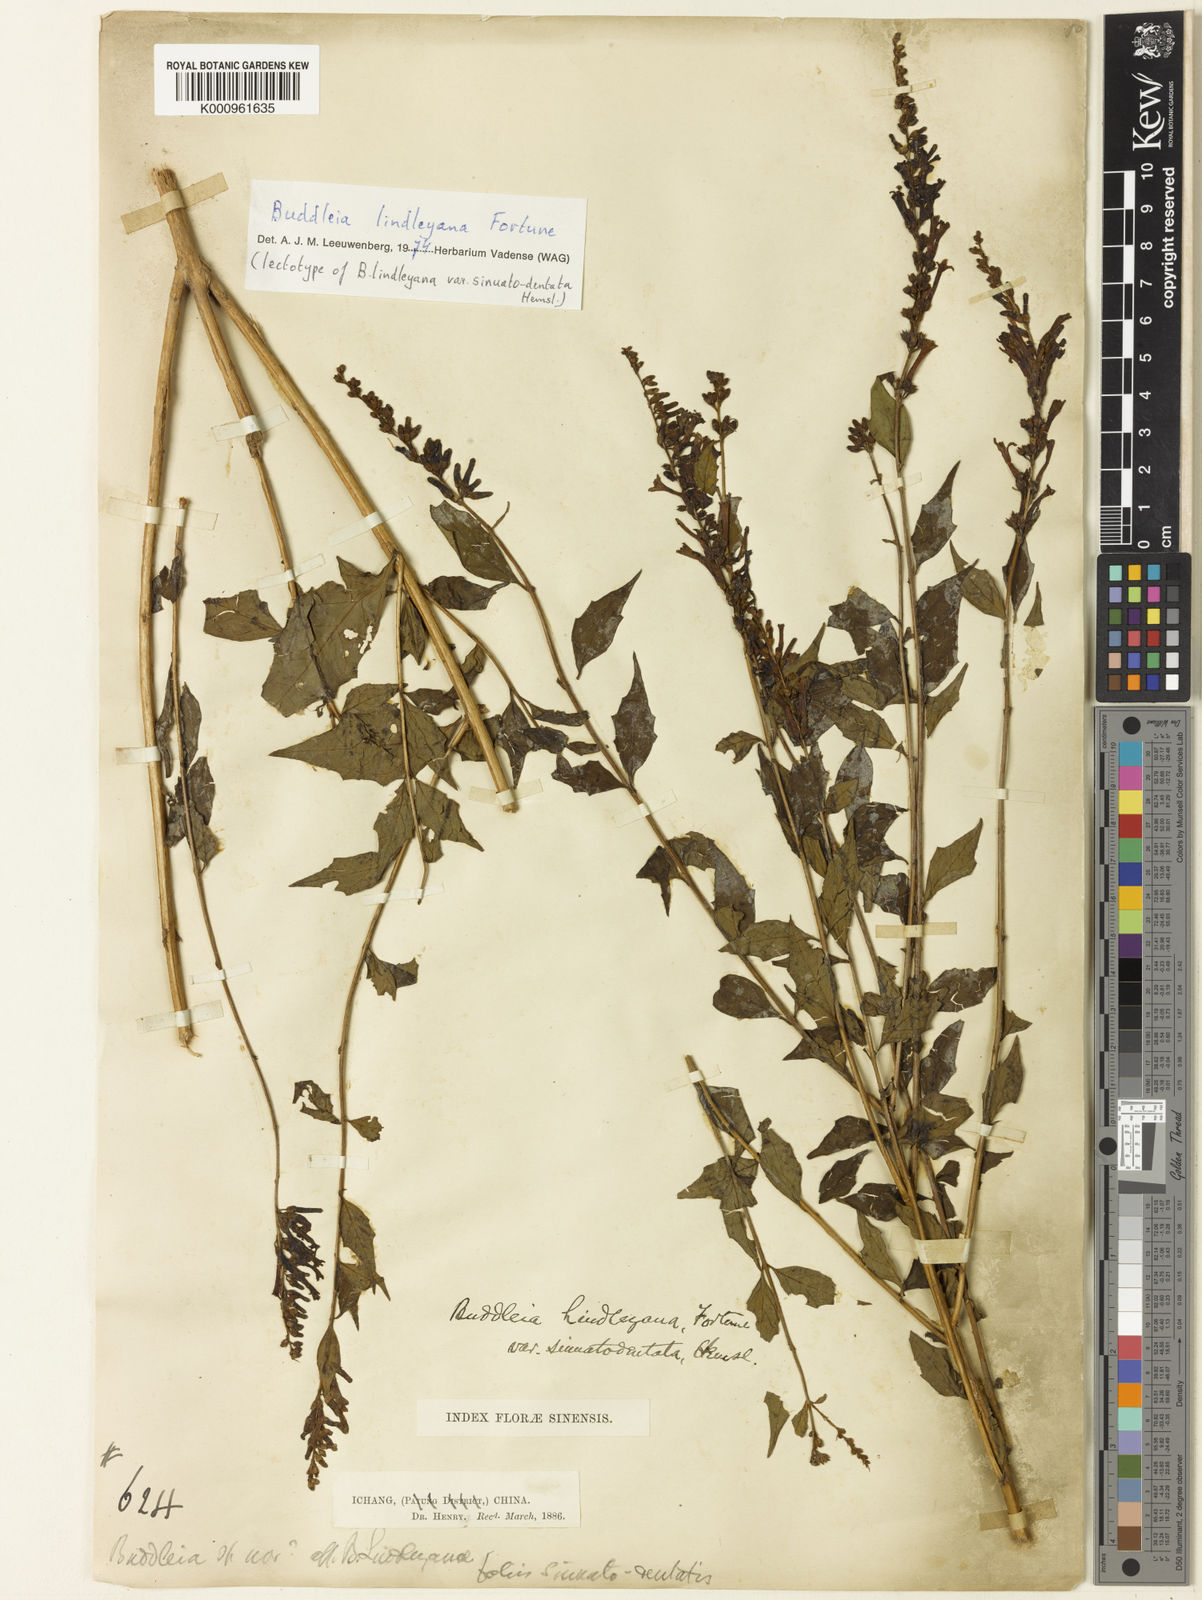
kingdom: Plantae
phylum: Tracheophyta
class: Magnoliopsida
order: Lamiales
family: Scrophulariaceae
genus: Buddleja
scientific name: Buddleja lindleyana
